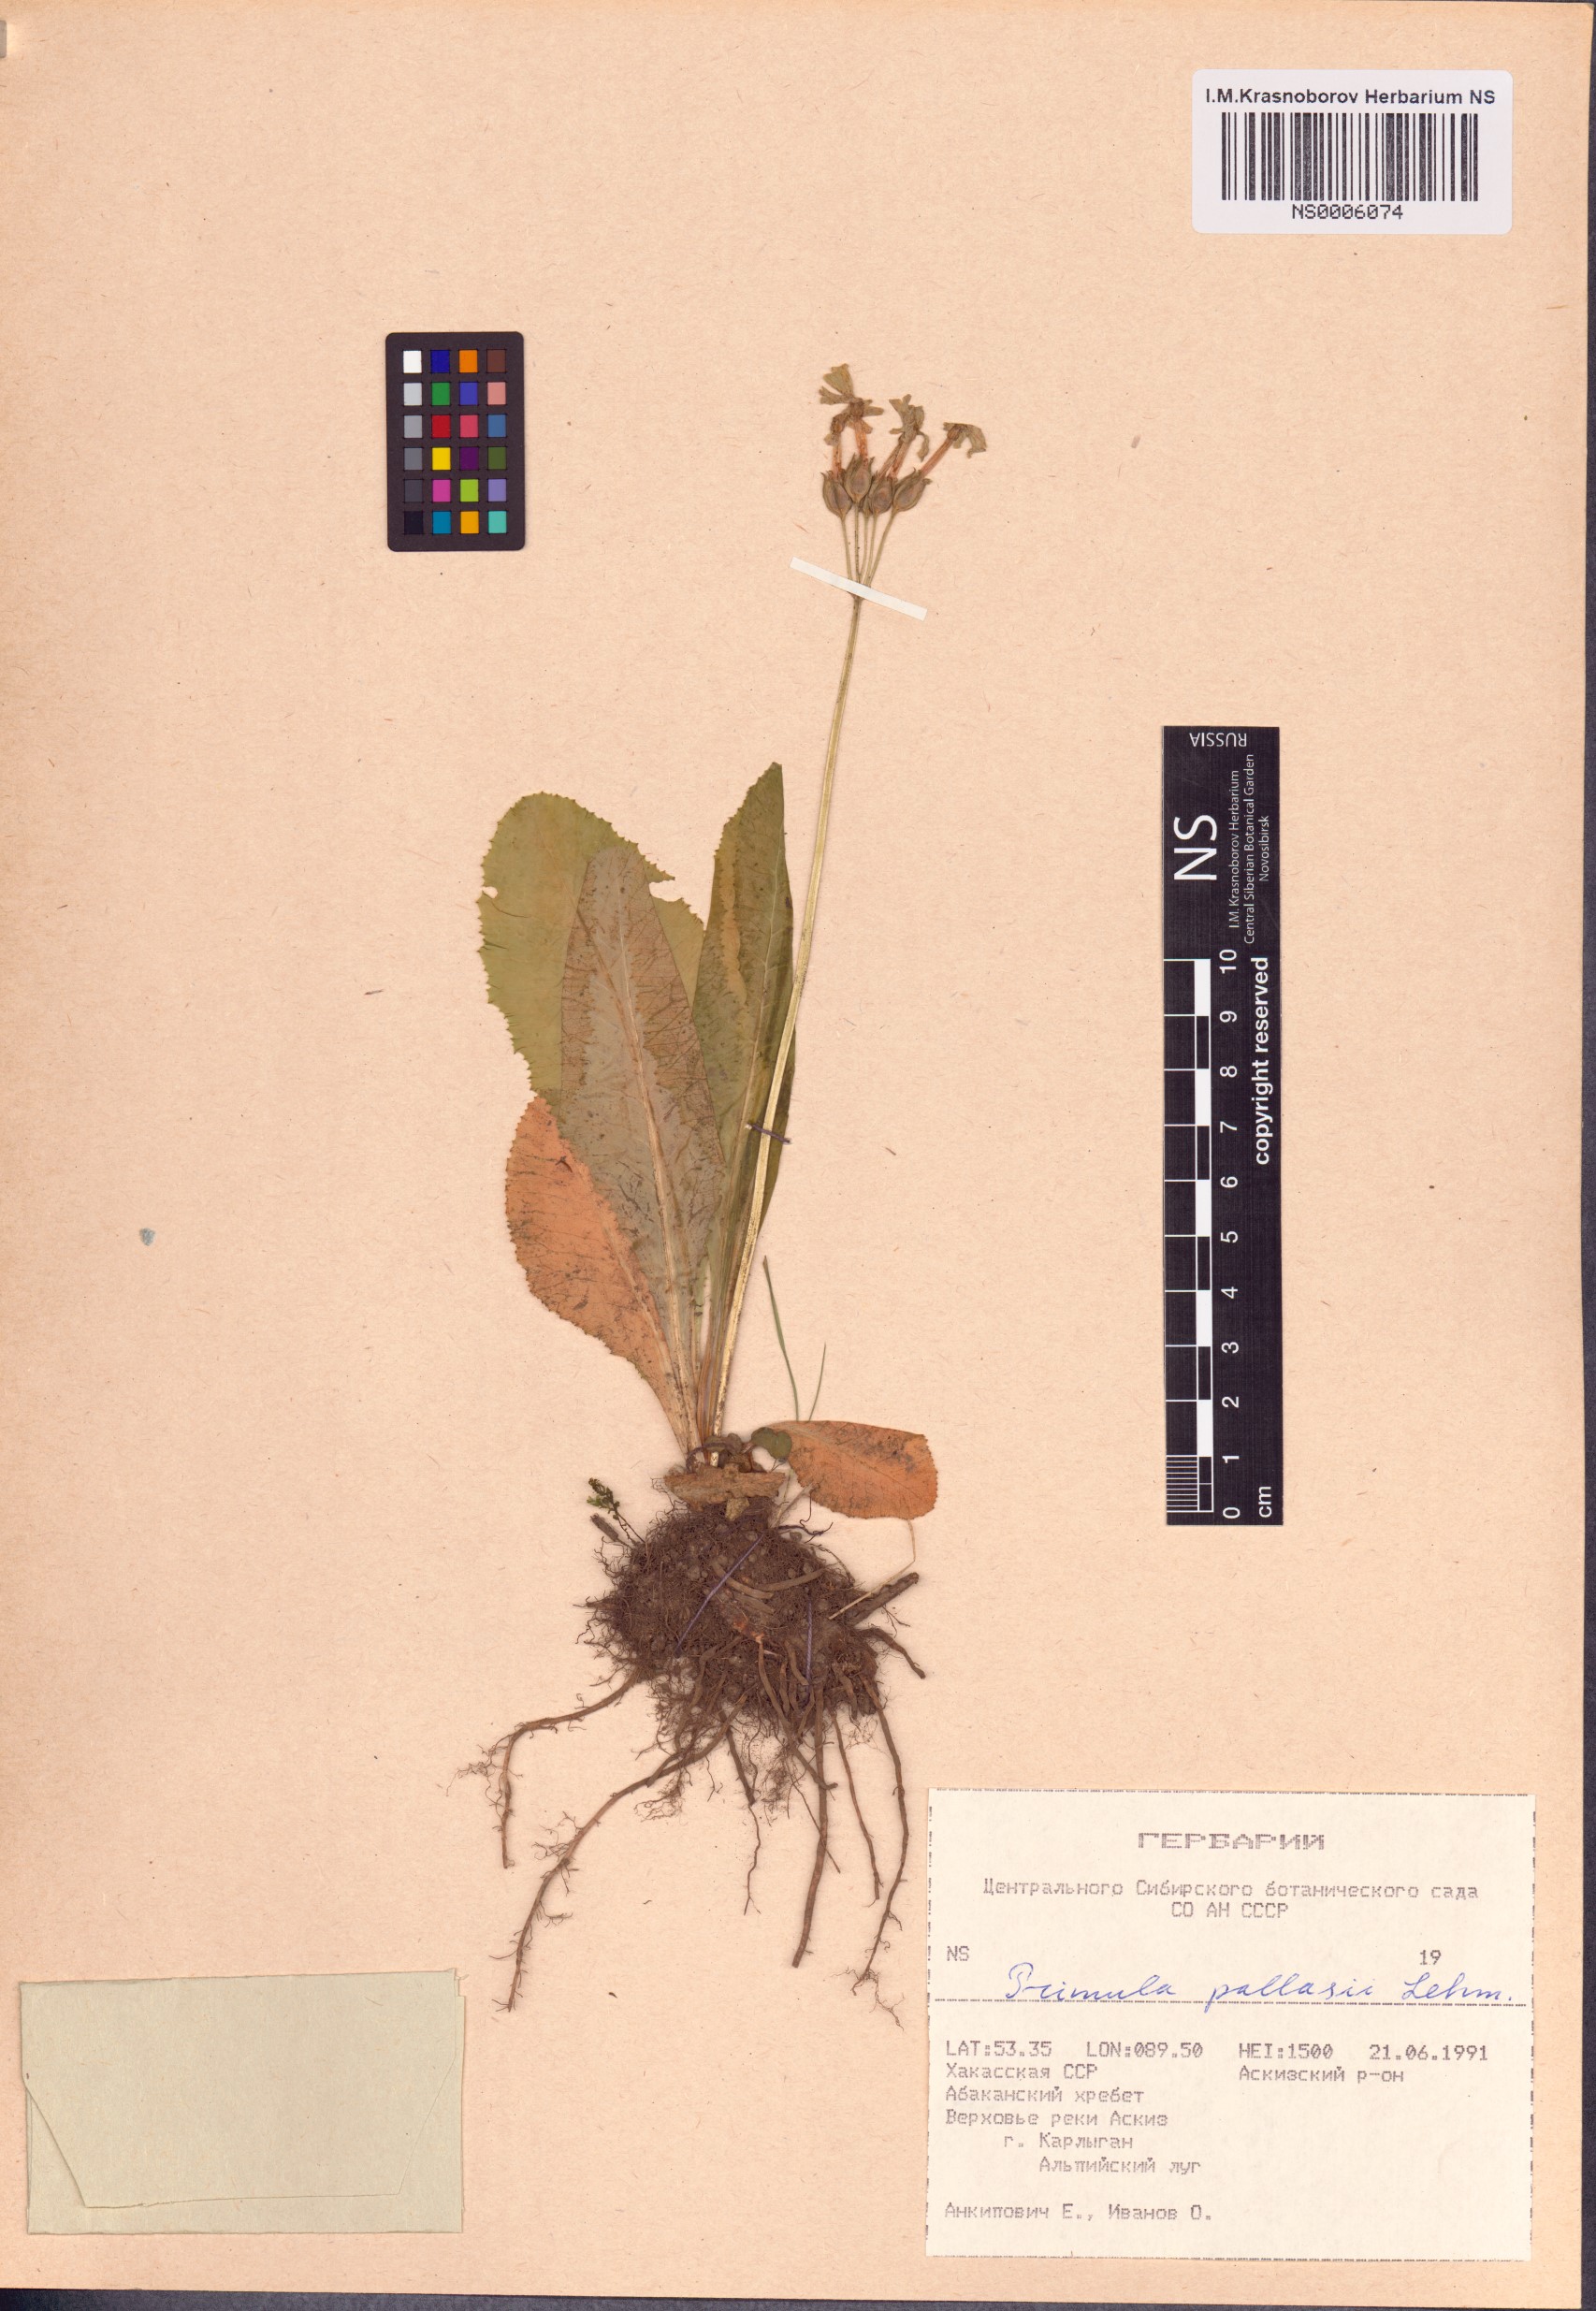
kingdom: Plantae
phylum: Tracheophyta
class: Magnoliopsida
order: Ericales
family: Primulaceae
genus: Primula
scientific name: Primula elatior
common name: Oxlip
